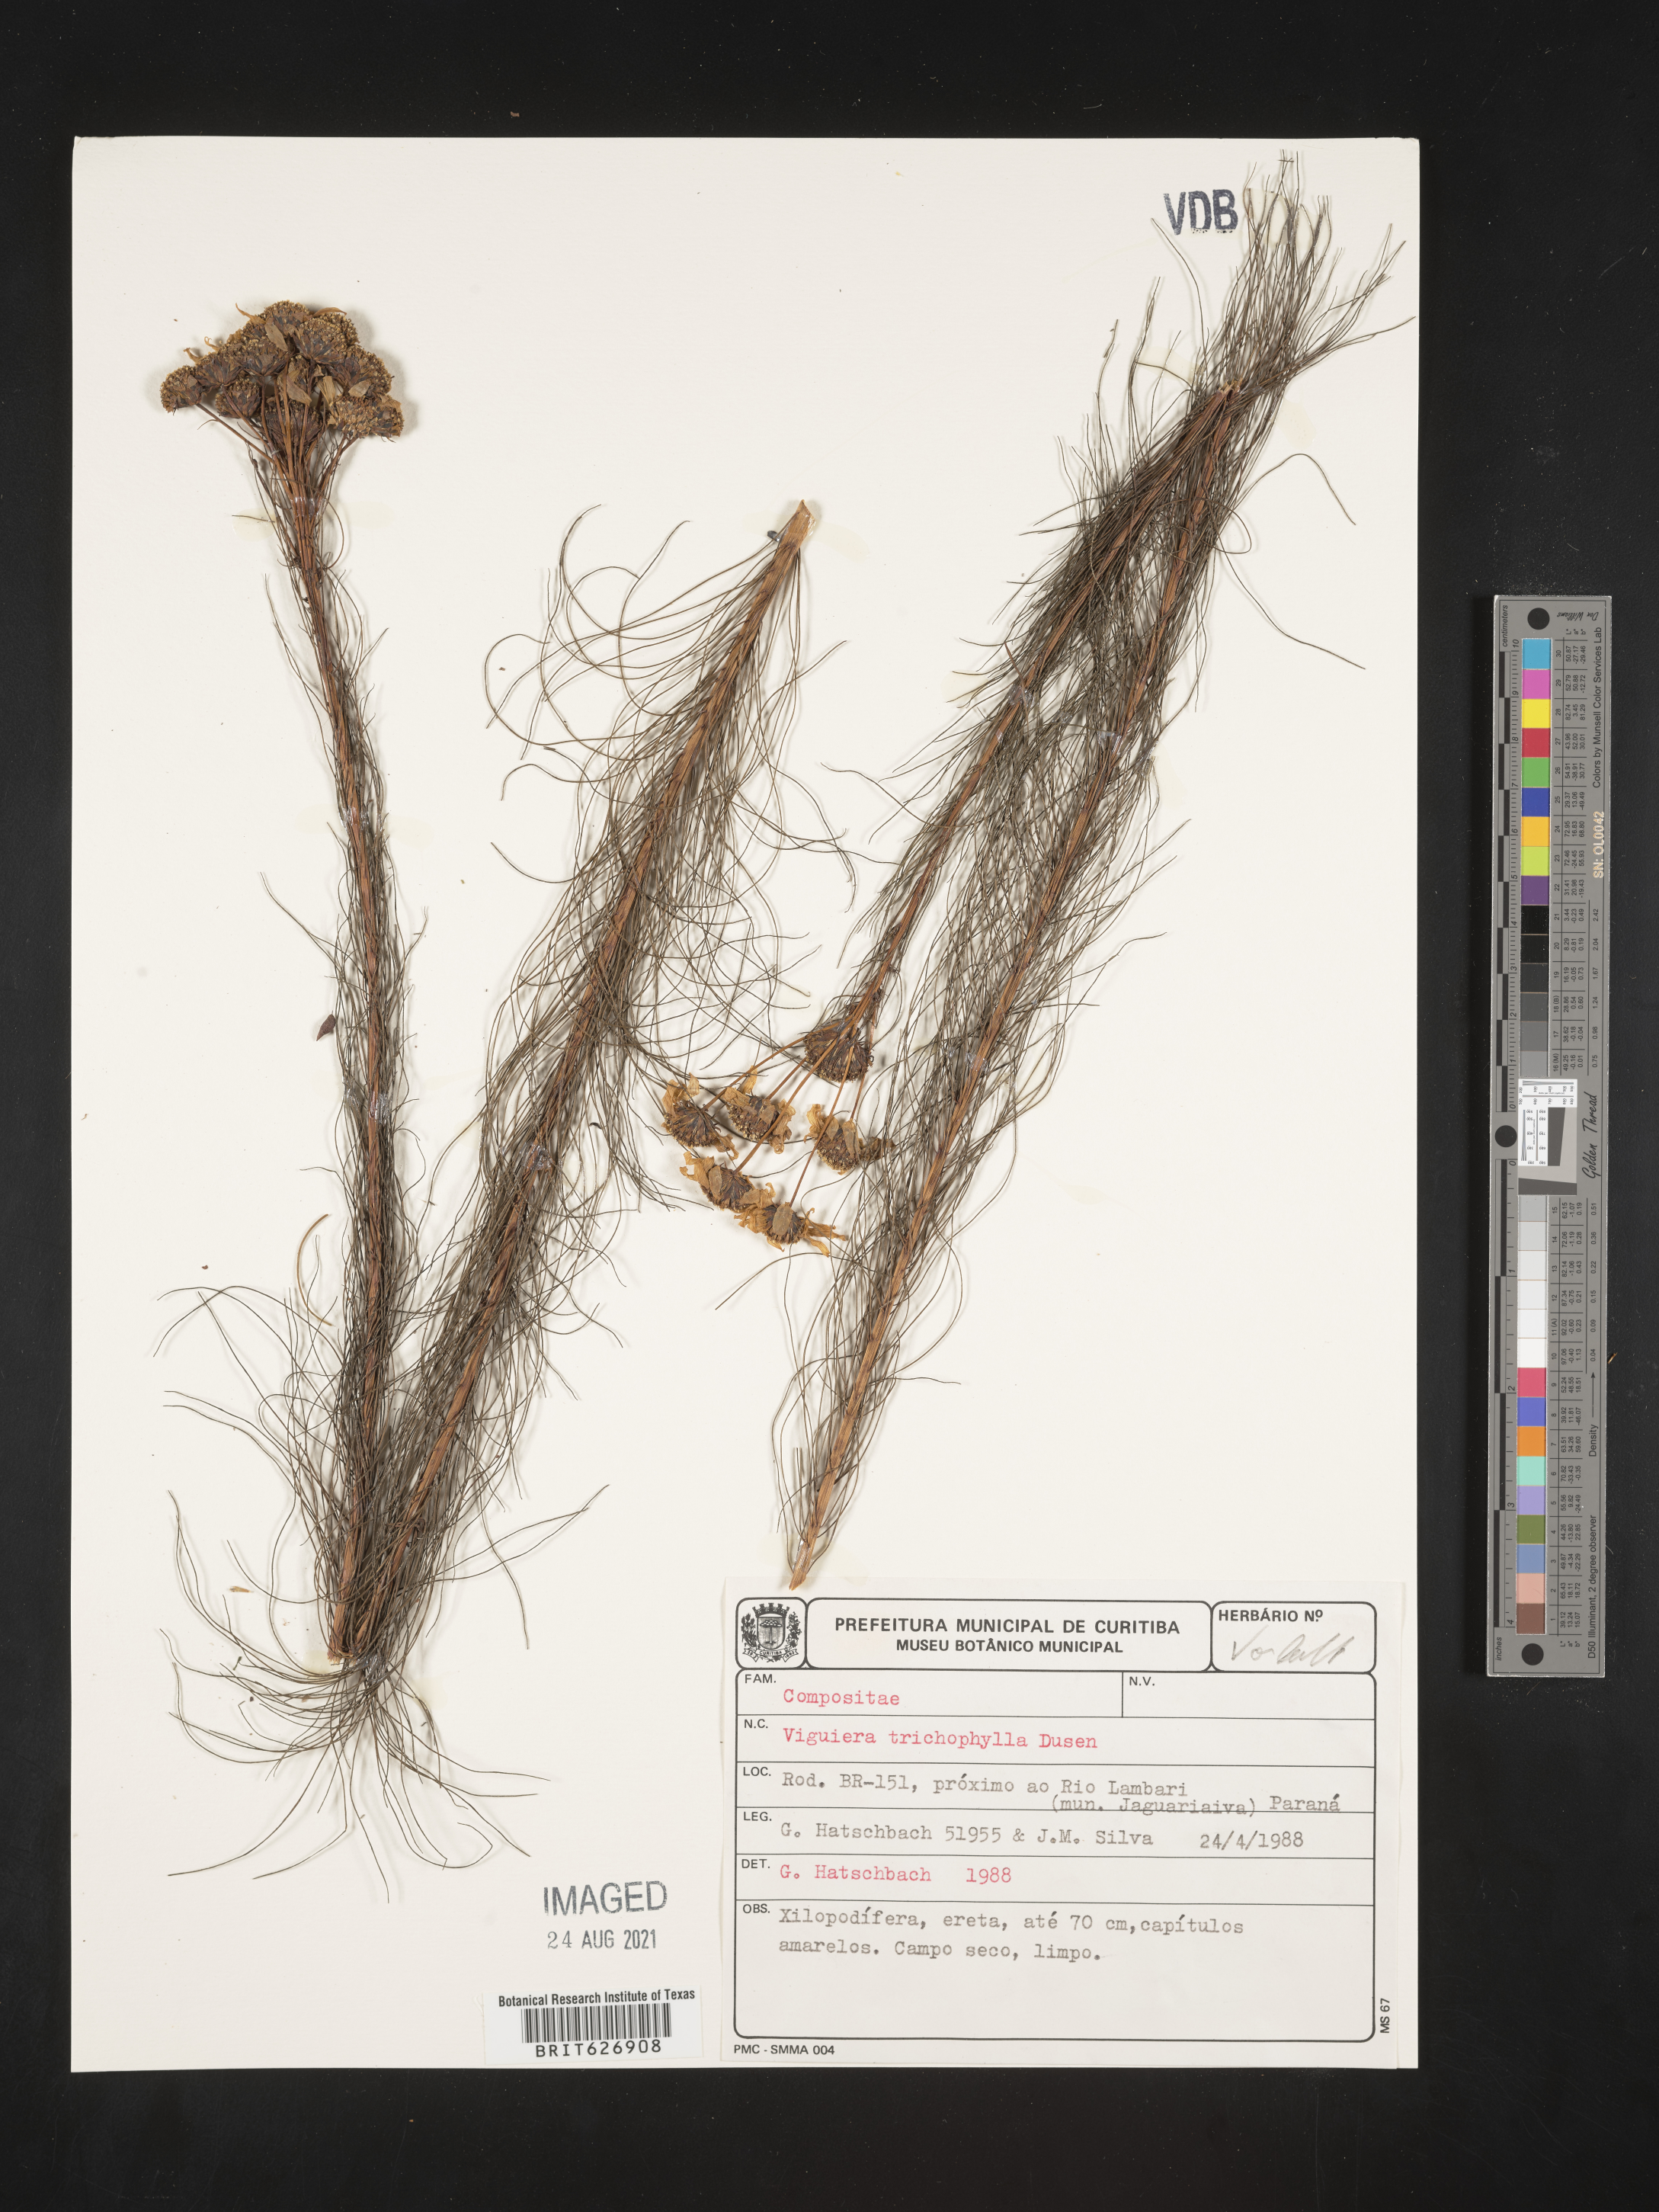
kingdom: Plantae
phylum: Tracheophyta
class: Magnoliopsida
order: Asterales
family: Asteraceae
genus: Aldama
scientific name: Aldama trichophylla
